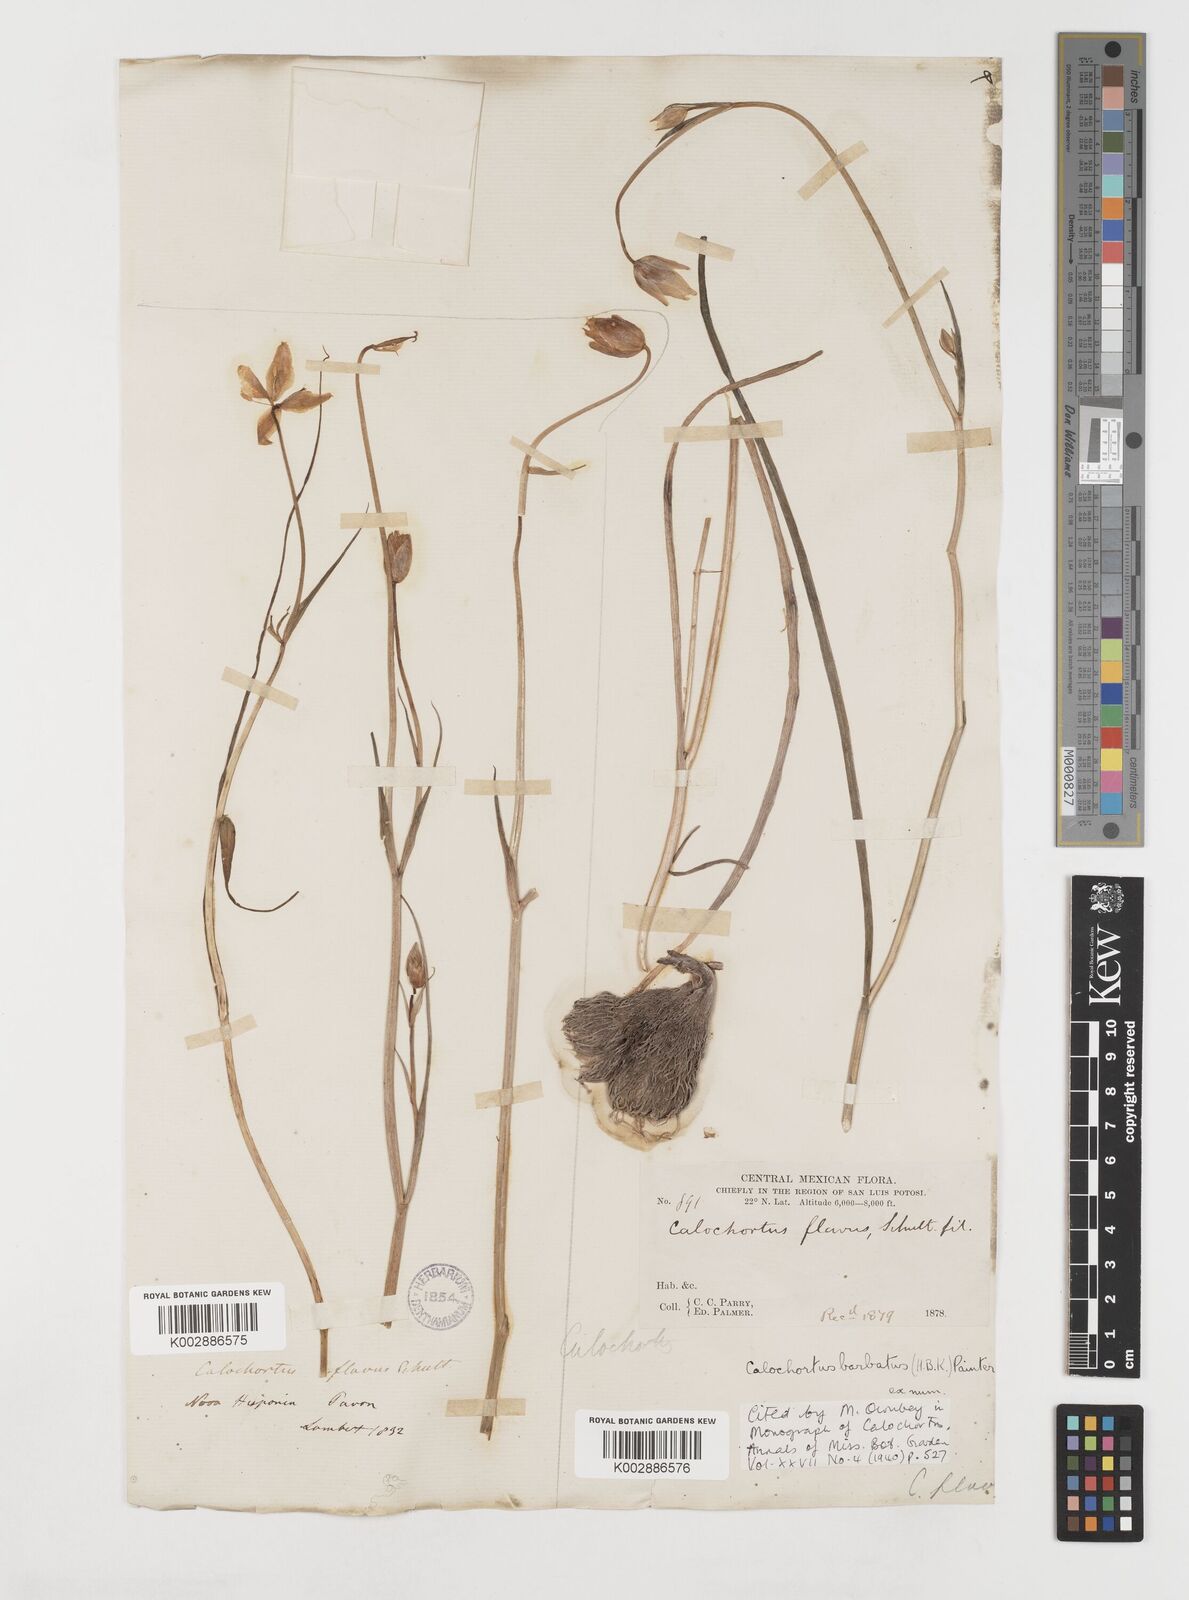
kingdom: Plantae
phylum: Tracheophyta
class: Liliopsida
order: Liliales
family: Liliaceae
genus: Calochortus
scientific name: Calochortus barbatus
